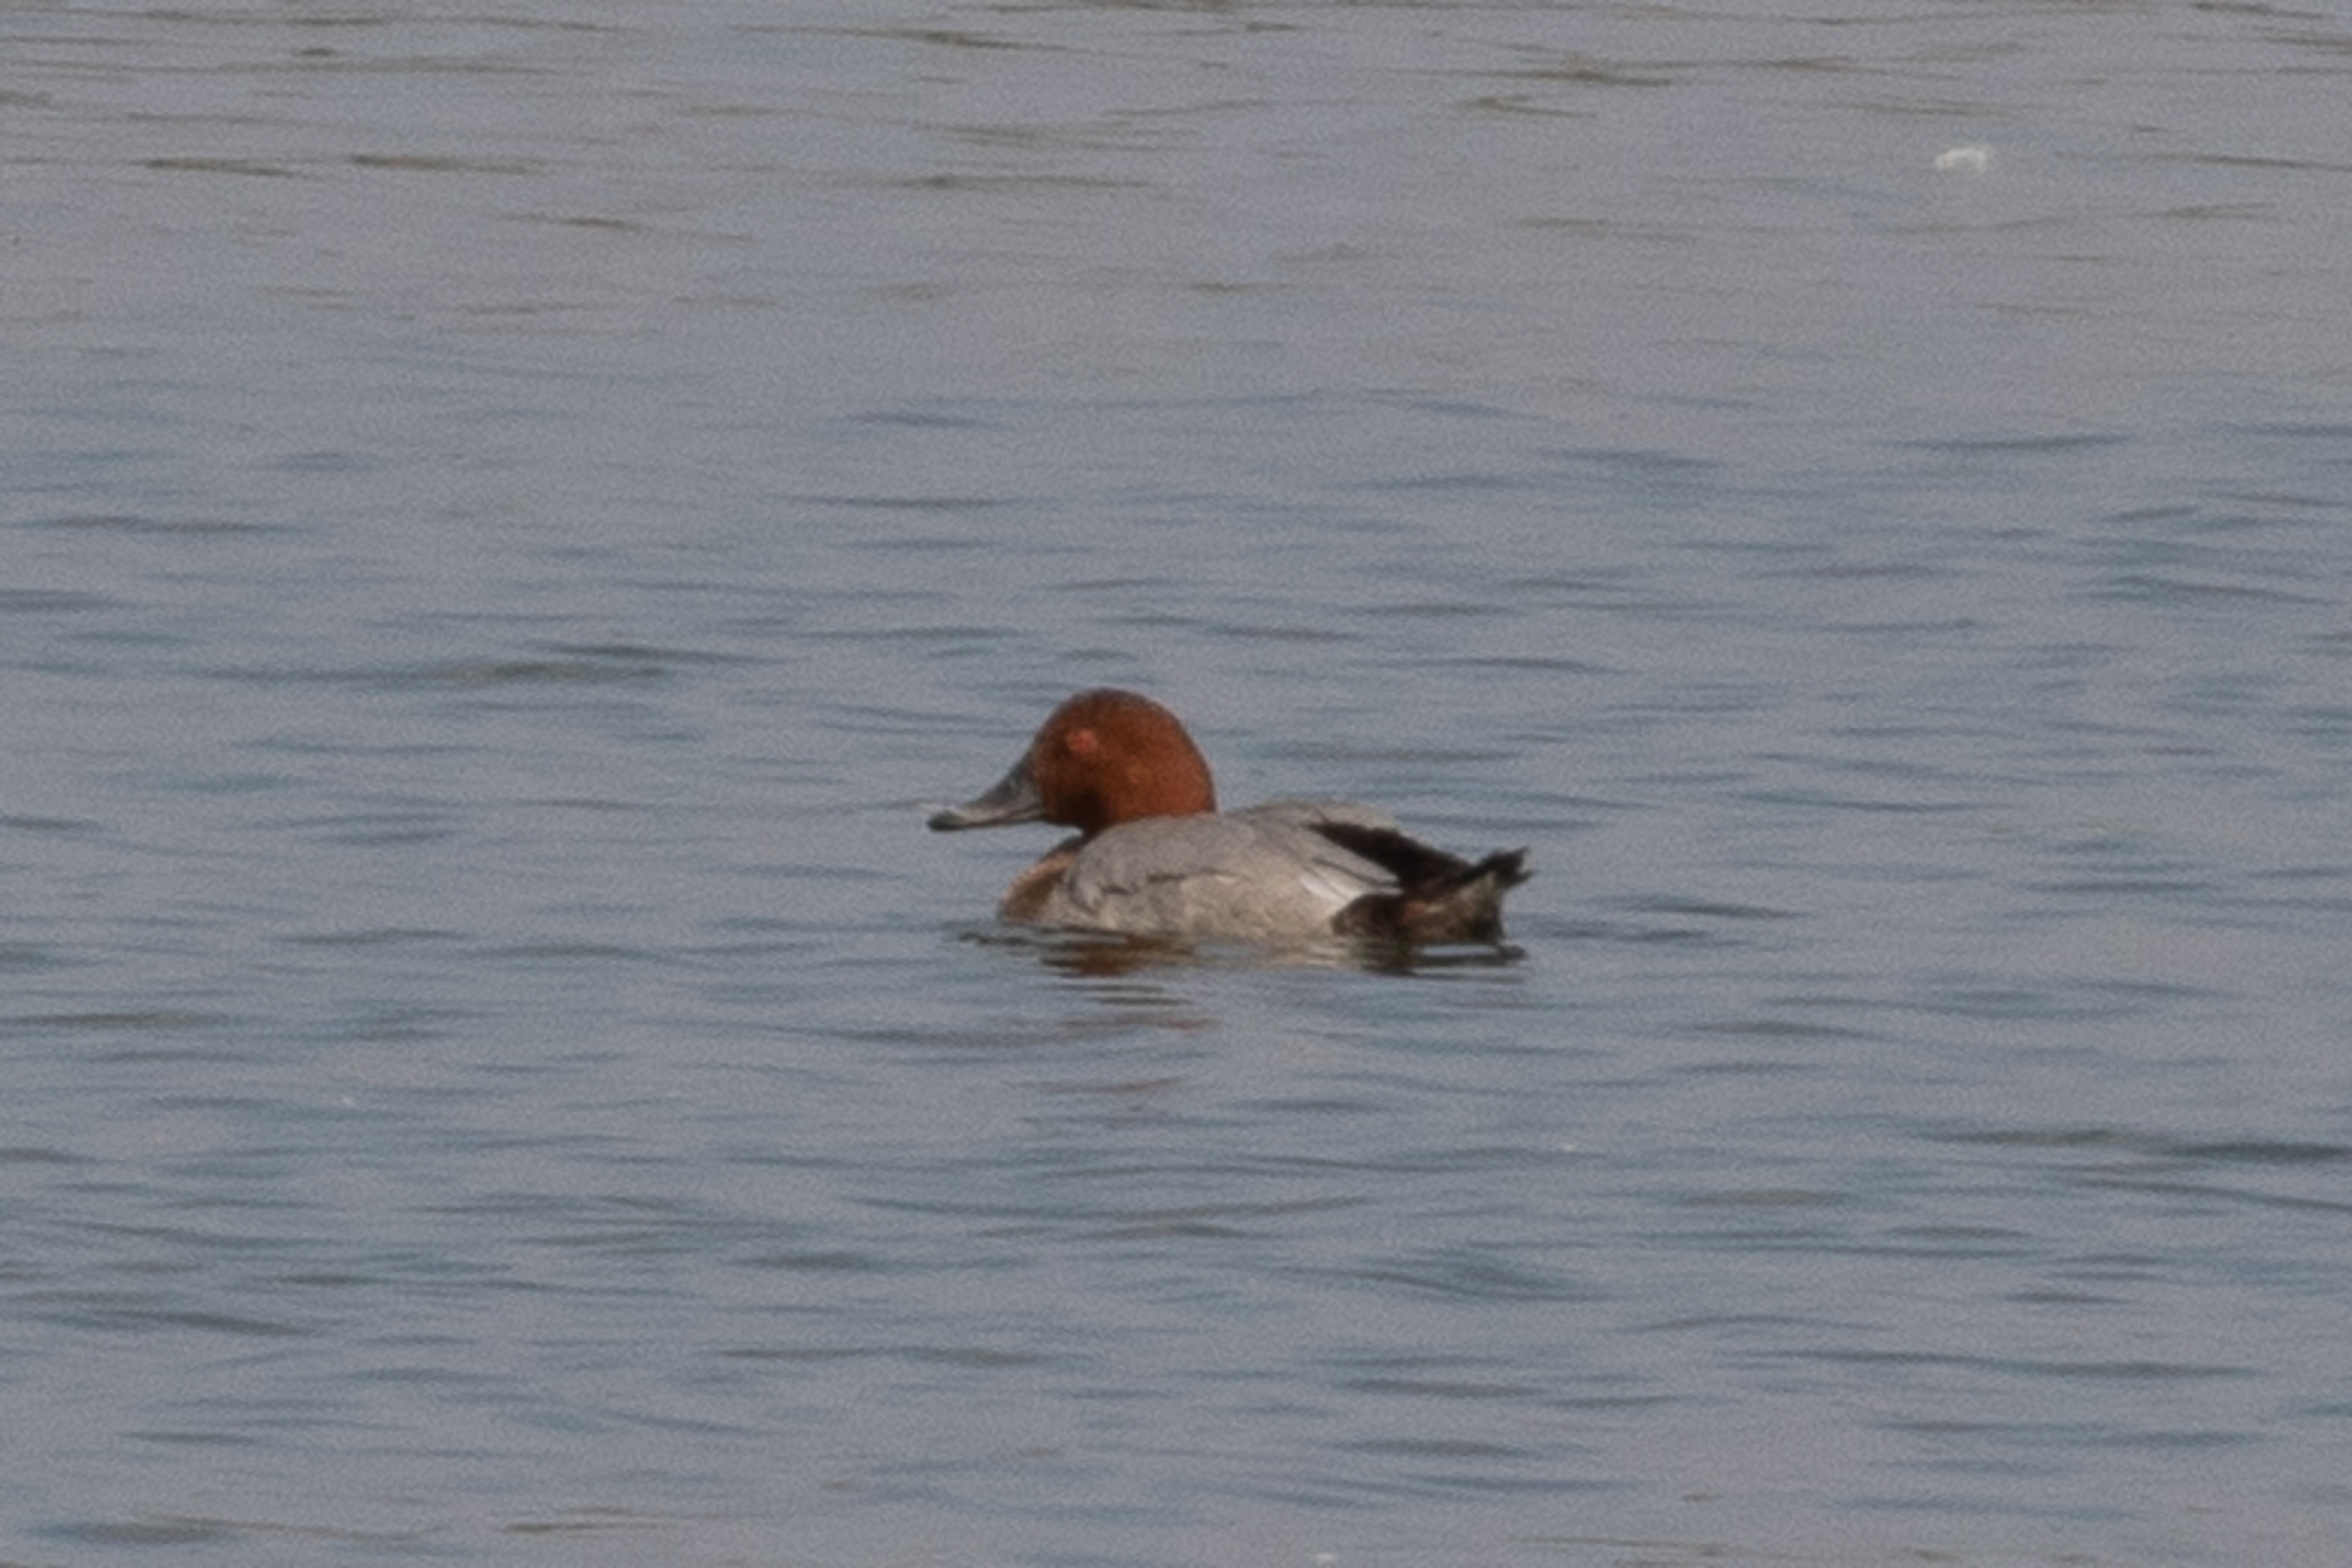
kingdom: Animalia
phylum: Chordata
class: Aves
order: Anseriformes
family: Anatidae
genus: Aythya
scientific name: Aythya ferina
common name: Taffeland
